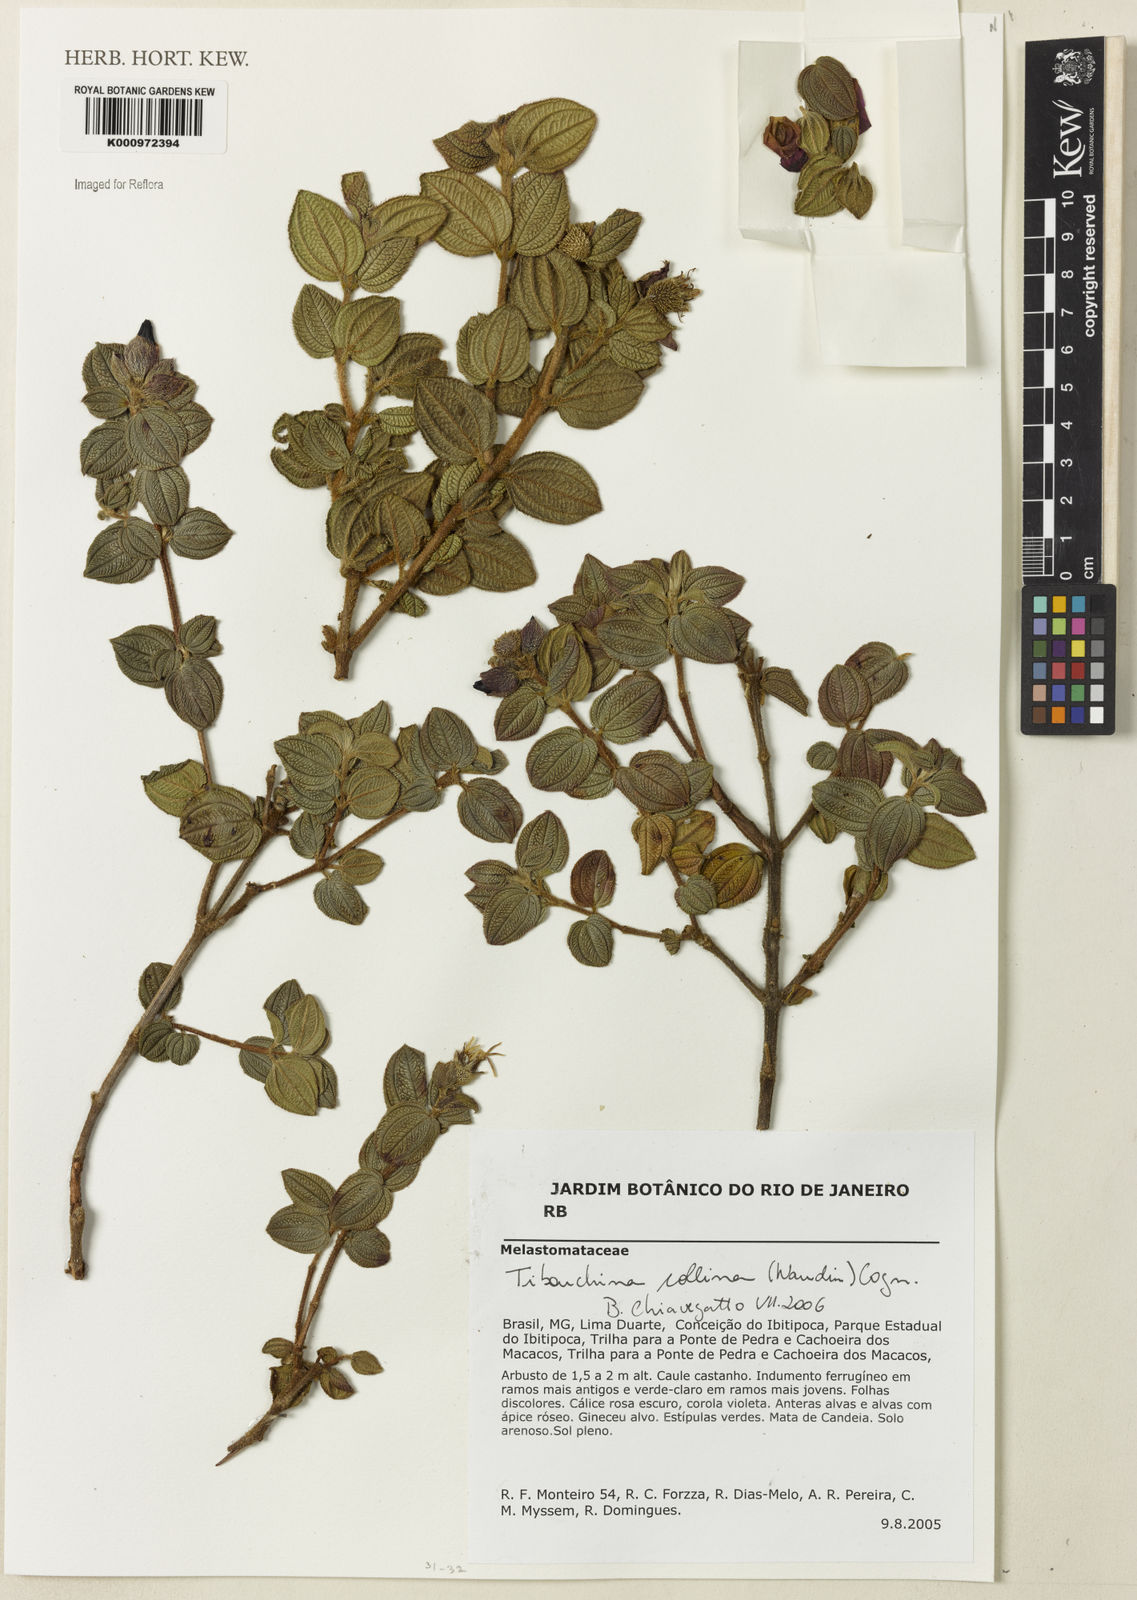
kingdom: Plantae
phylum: Tracheophyta
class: Magnoliopsida
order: Myrtales
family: Melastomataceae
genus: Pleroma
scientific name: Pleroma collinum
